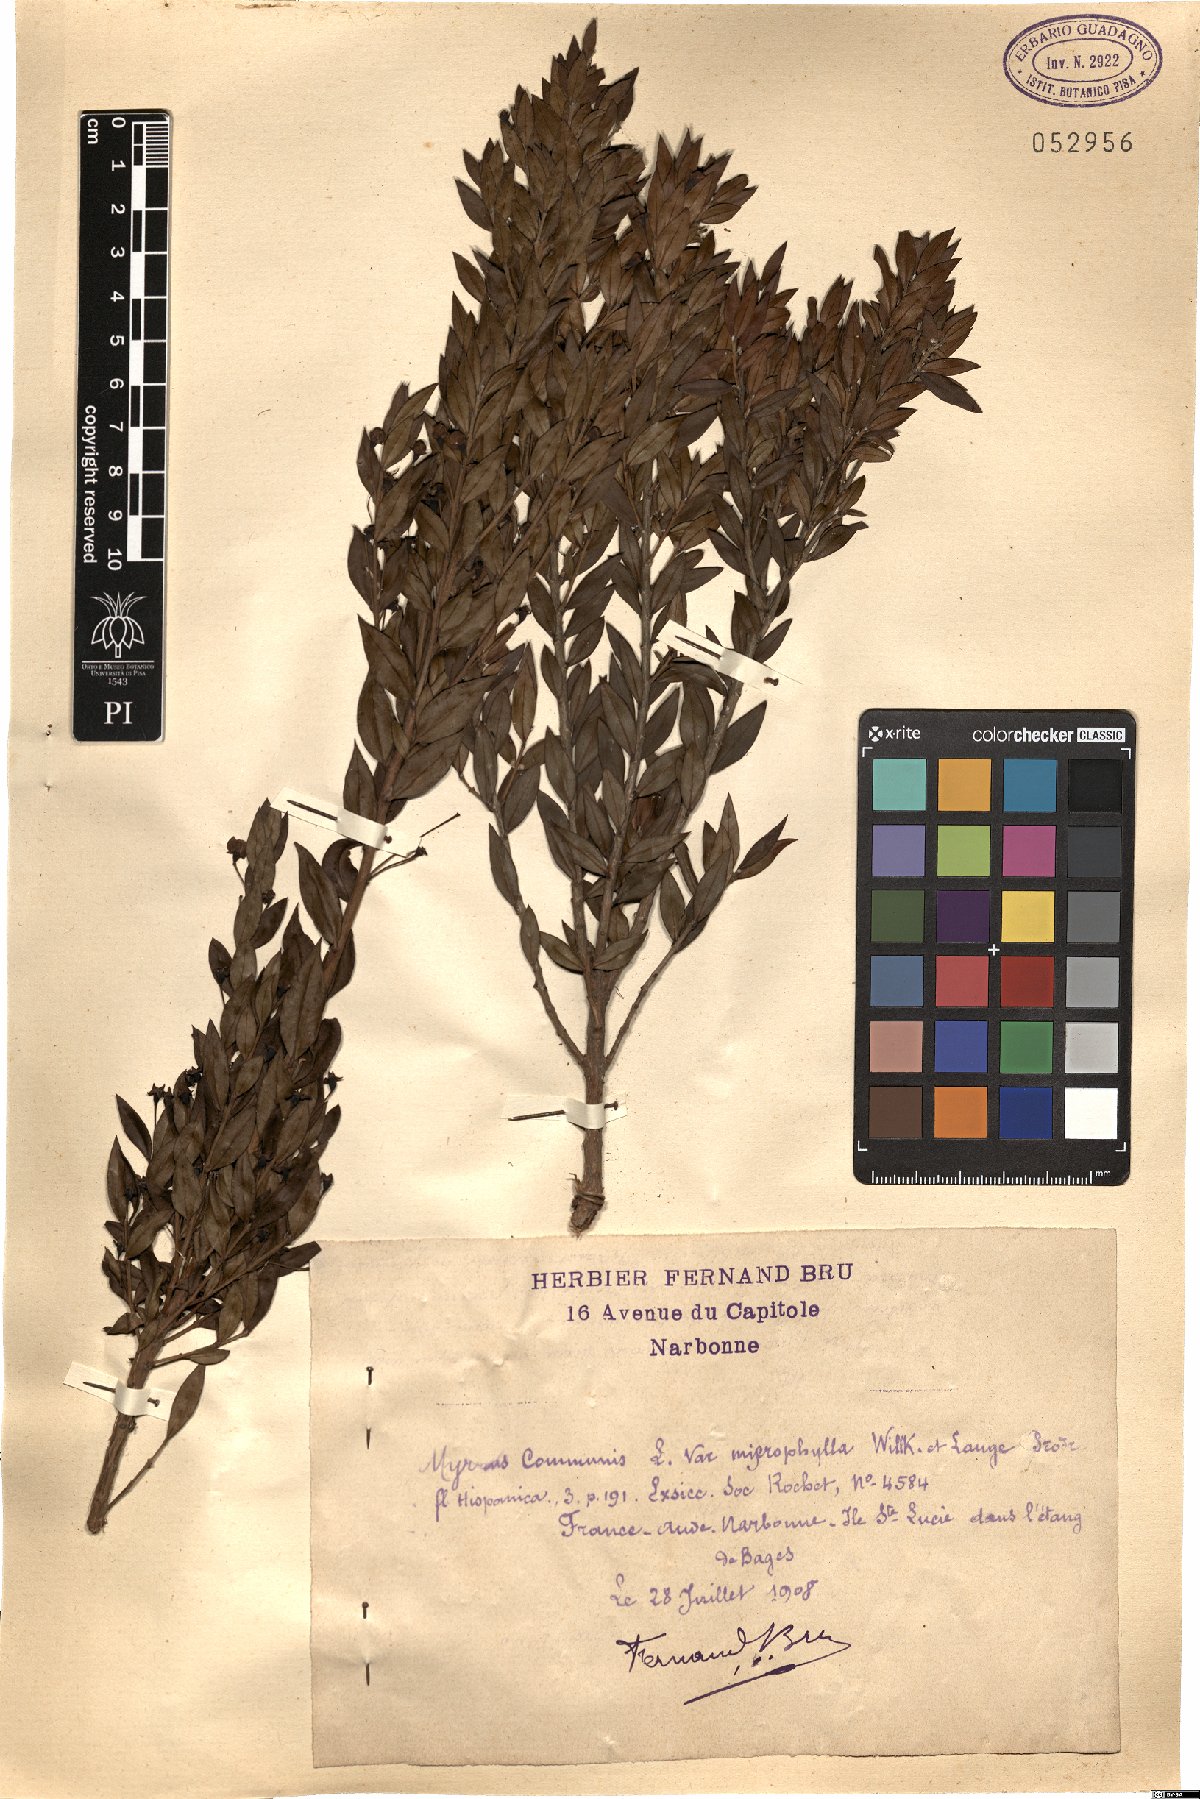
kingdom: Plantae
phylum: Tracheophyta
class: Magnoliopsida
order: Myrtales
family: Myrtaceae
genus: Myrtus
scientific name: Myrtus communis
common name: Myrtle
